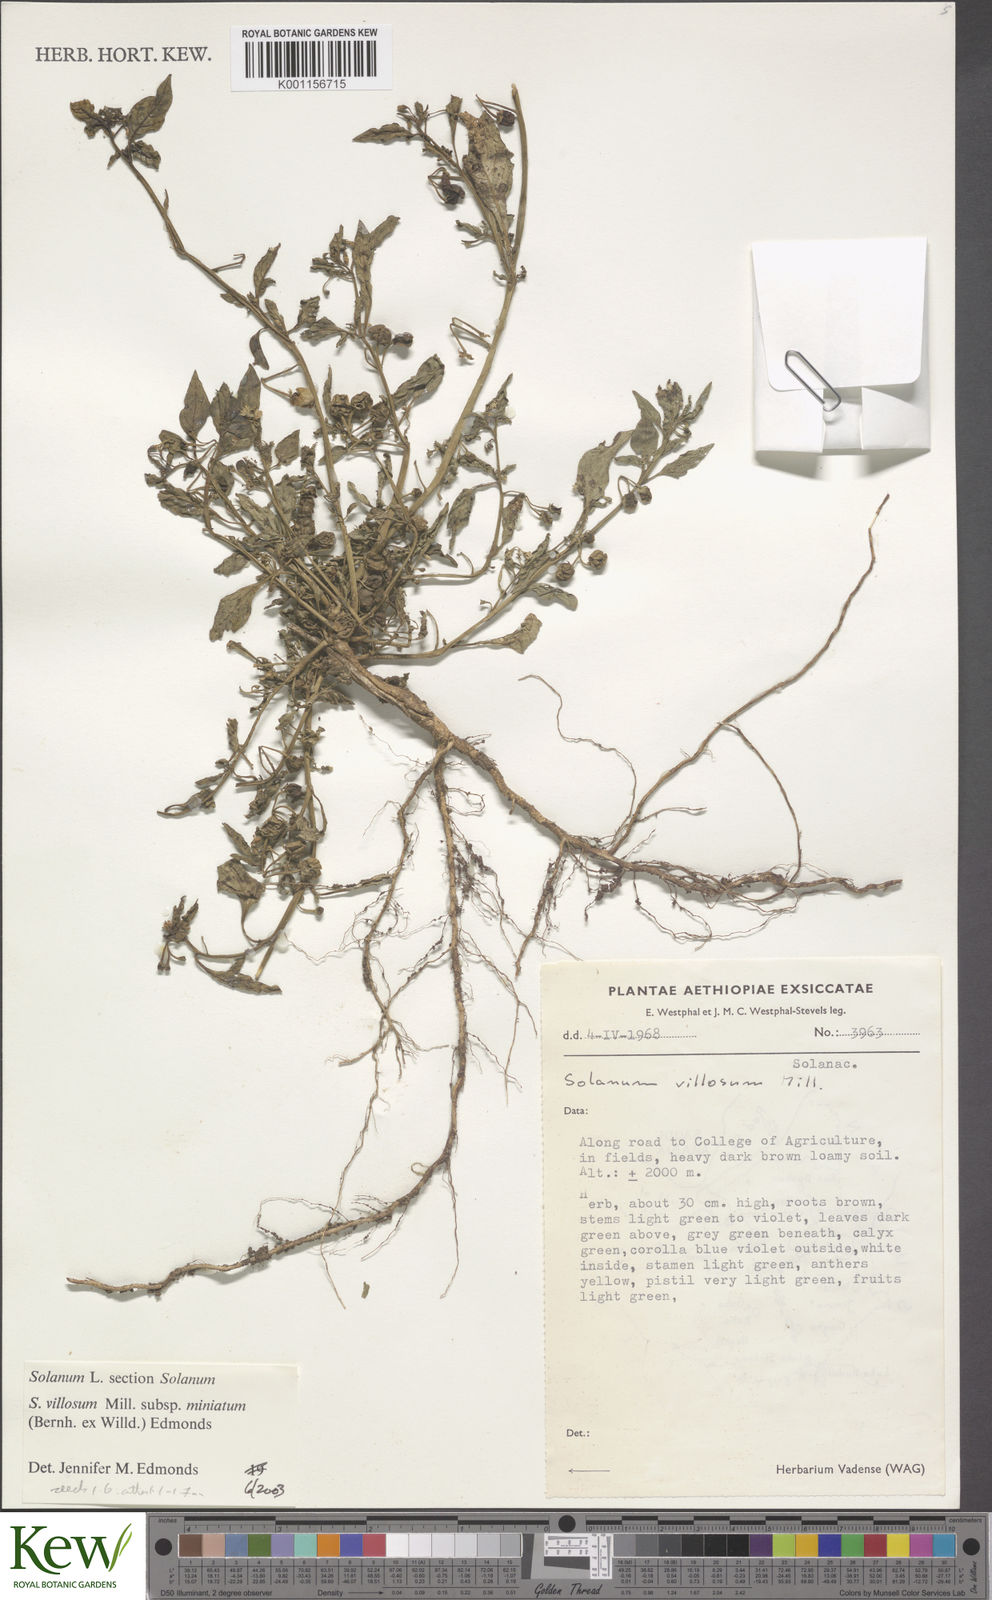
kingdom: Plantae
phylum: Tracheophyta
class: Magnoliopsida
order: Solanales
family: Solanaceae
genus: Solanum
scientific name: Solanum villosum
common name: Red nightshade
